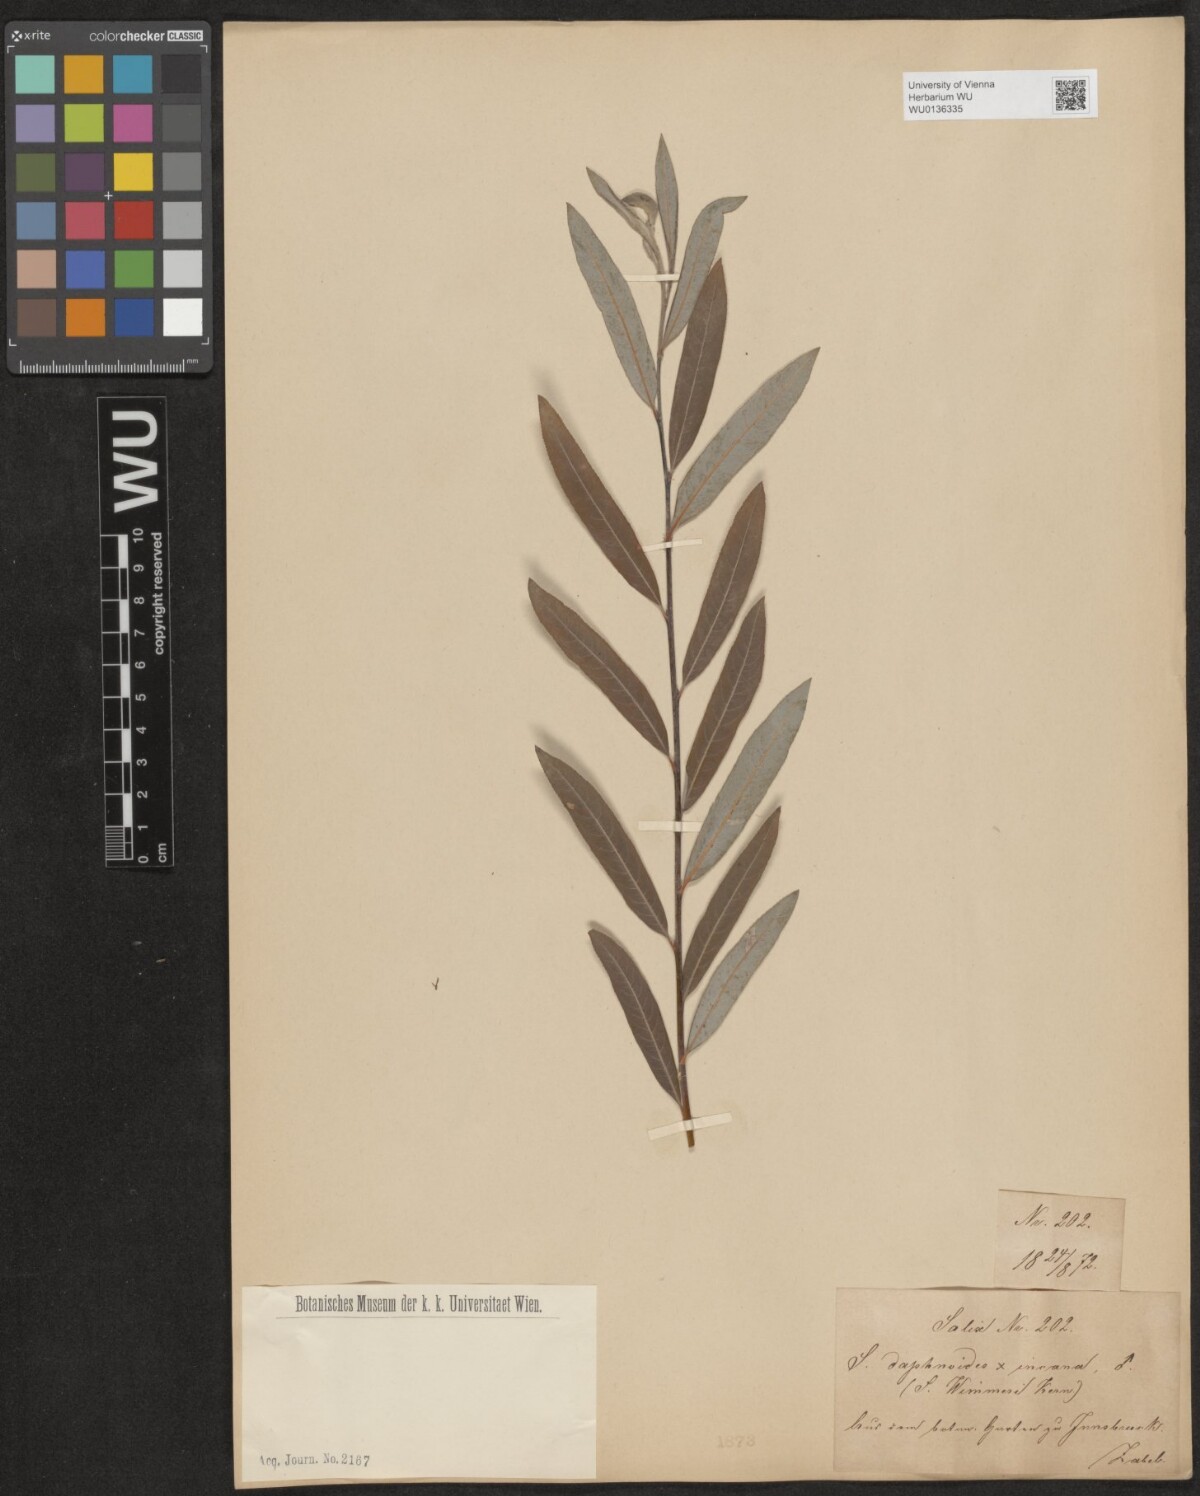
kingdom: Plantae
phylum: Tracheophyta
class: Magnoliopsida
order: Malpighiales
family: Salicaceae
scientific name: Salicaceae
